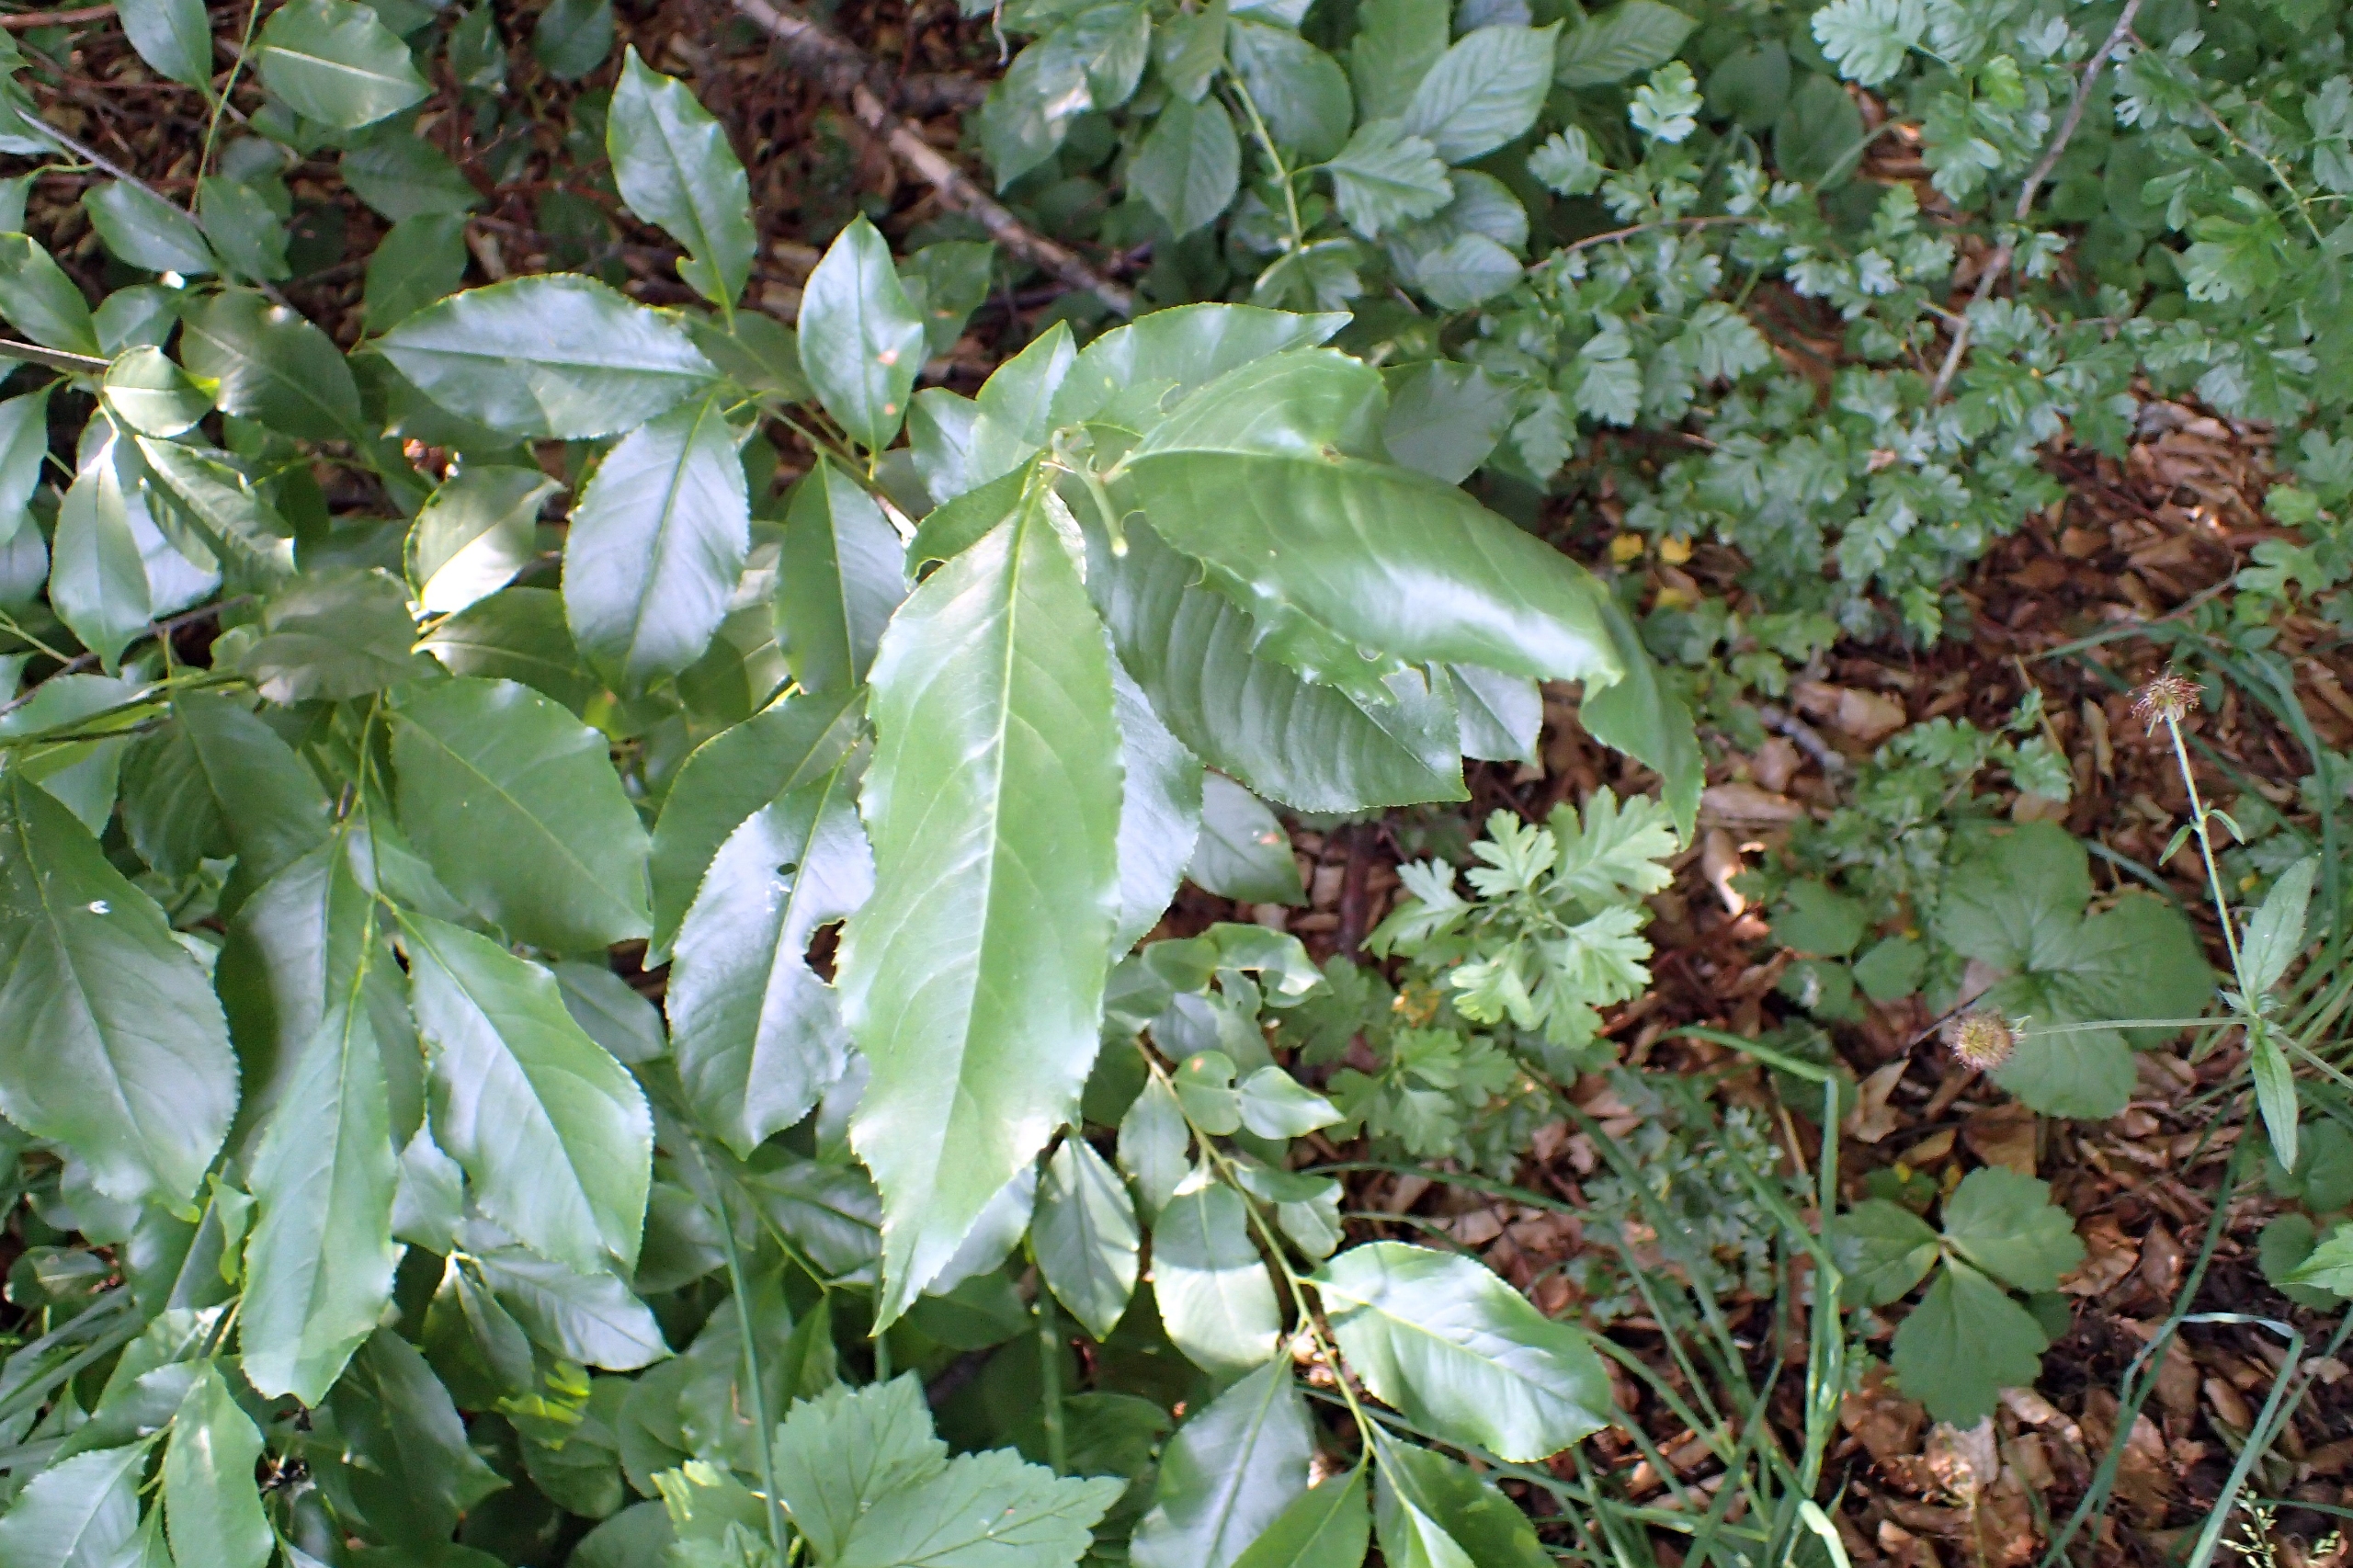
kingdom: Plantae
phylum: Tracheophyta
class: Magnoliopsida
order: Rosales
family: Rosaceae
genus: Prunus
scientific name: Prunus serotina
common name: Glansbladet hæg
